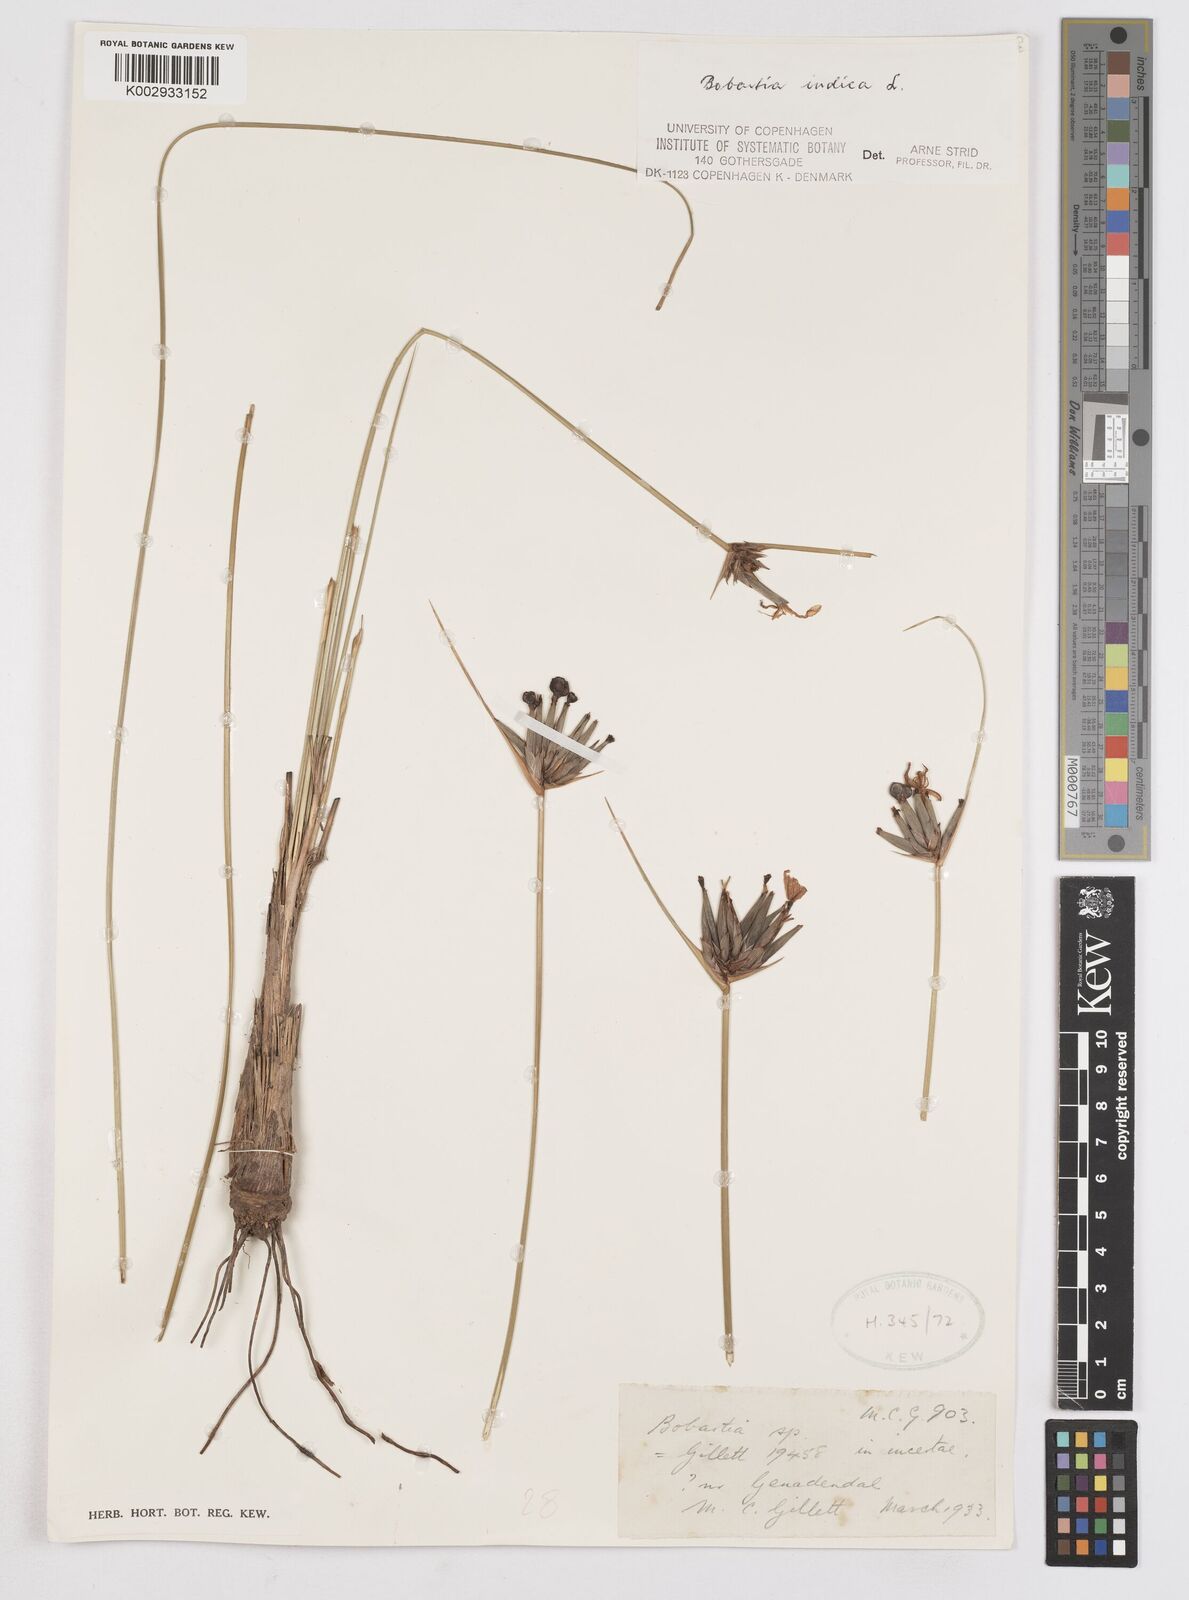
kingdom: Plantae
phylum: Tracheophyta
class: Liliopsida
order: Asparagales
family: Iridaceae
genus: Bobartia
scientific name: Bobartia indica
